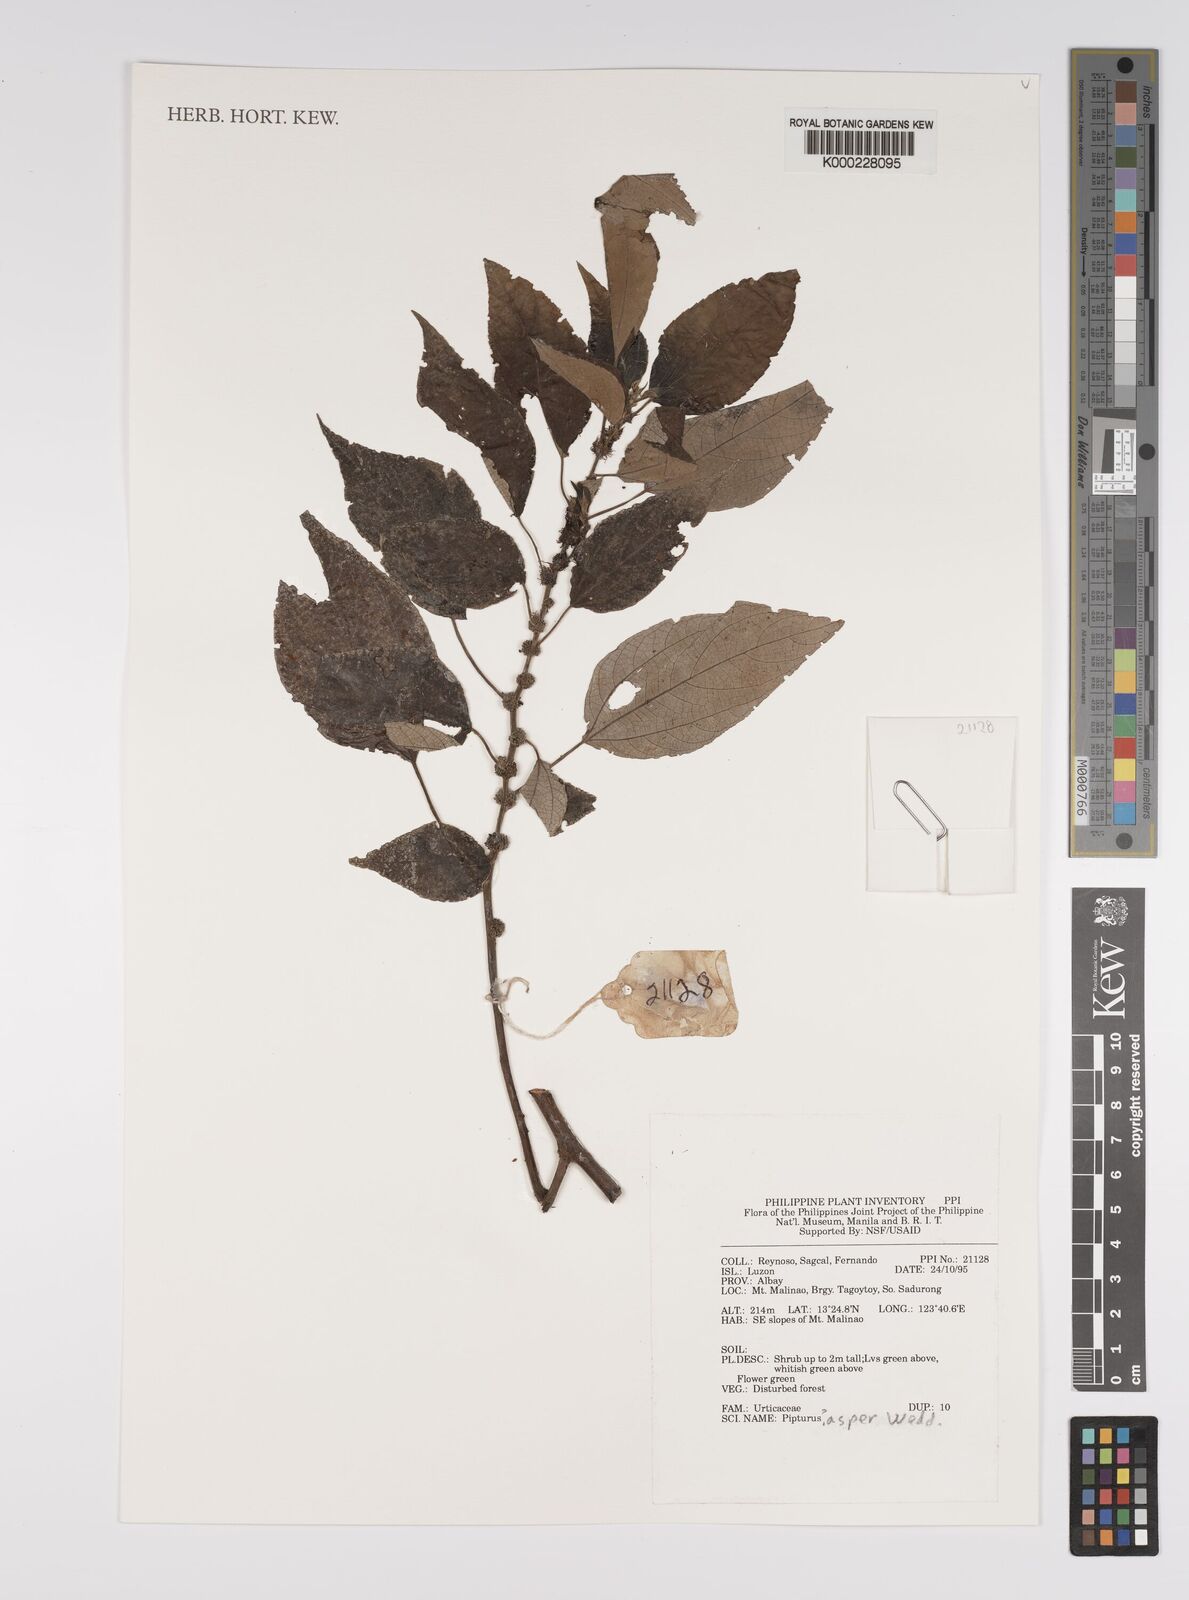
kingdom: Plantae
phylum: Tracheophyta
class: Magnoliopsida
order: Rosales
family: Urticaceae
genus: Pipturus
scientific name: Pipturus arborescens
